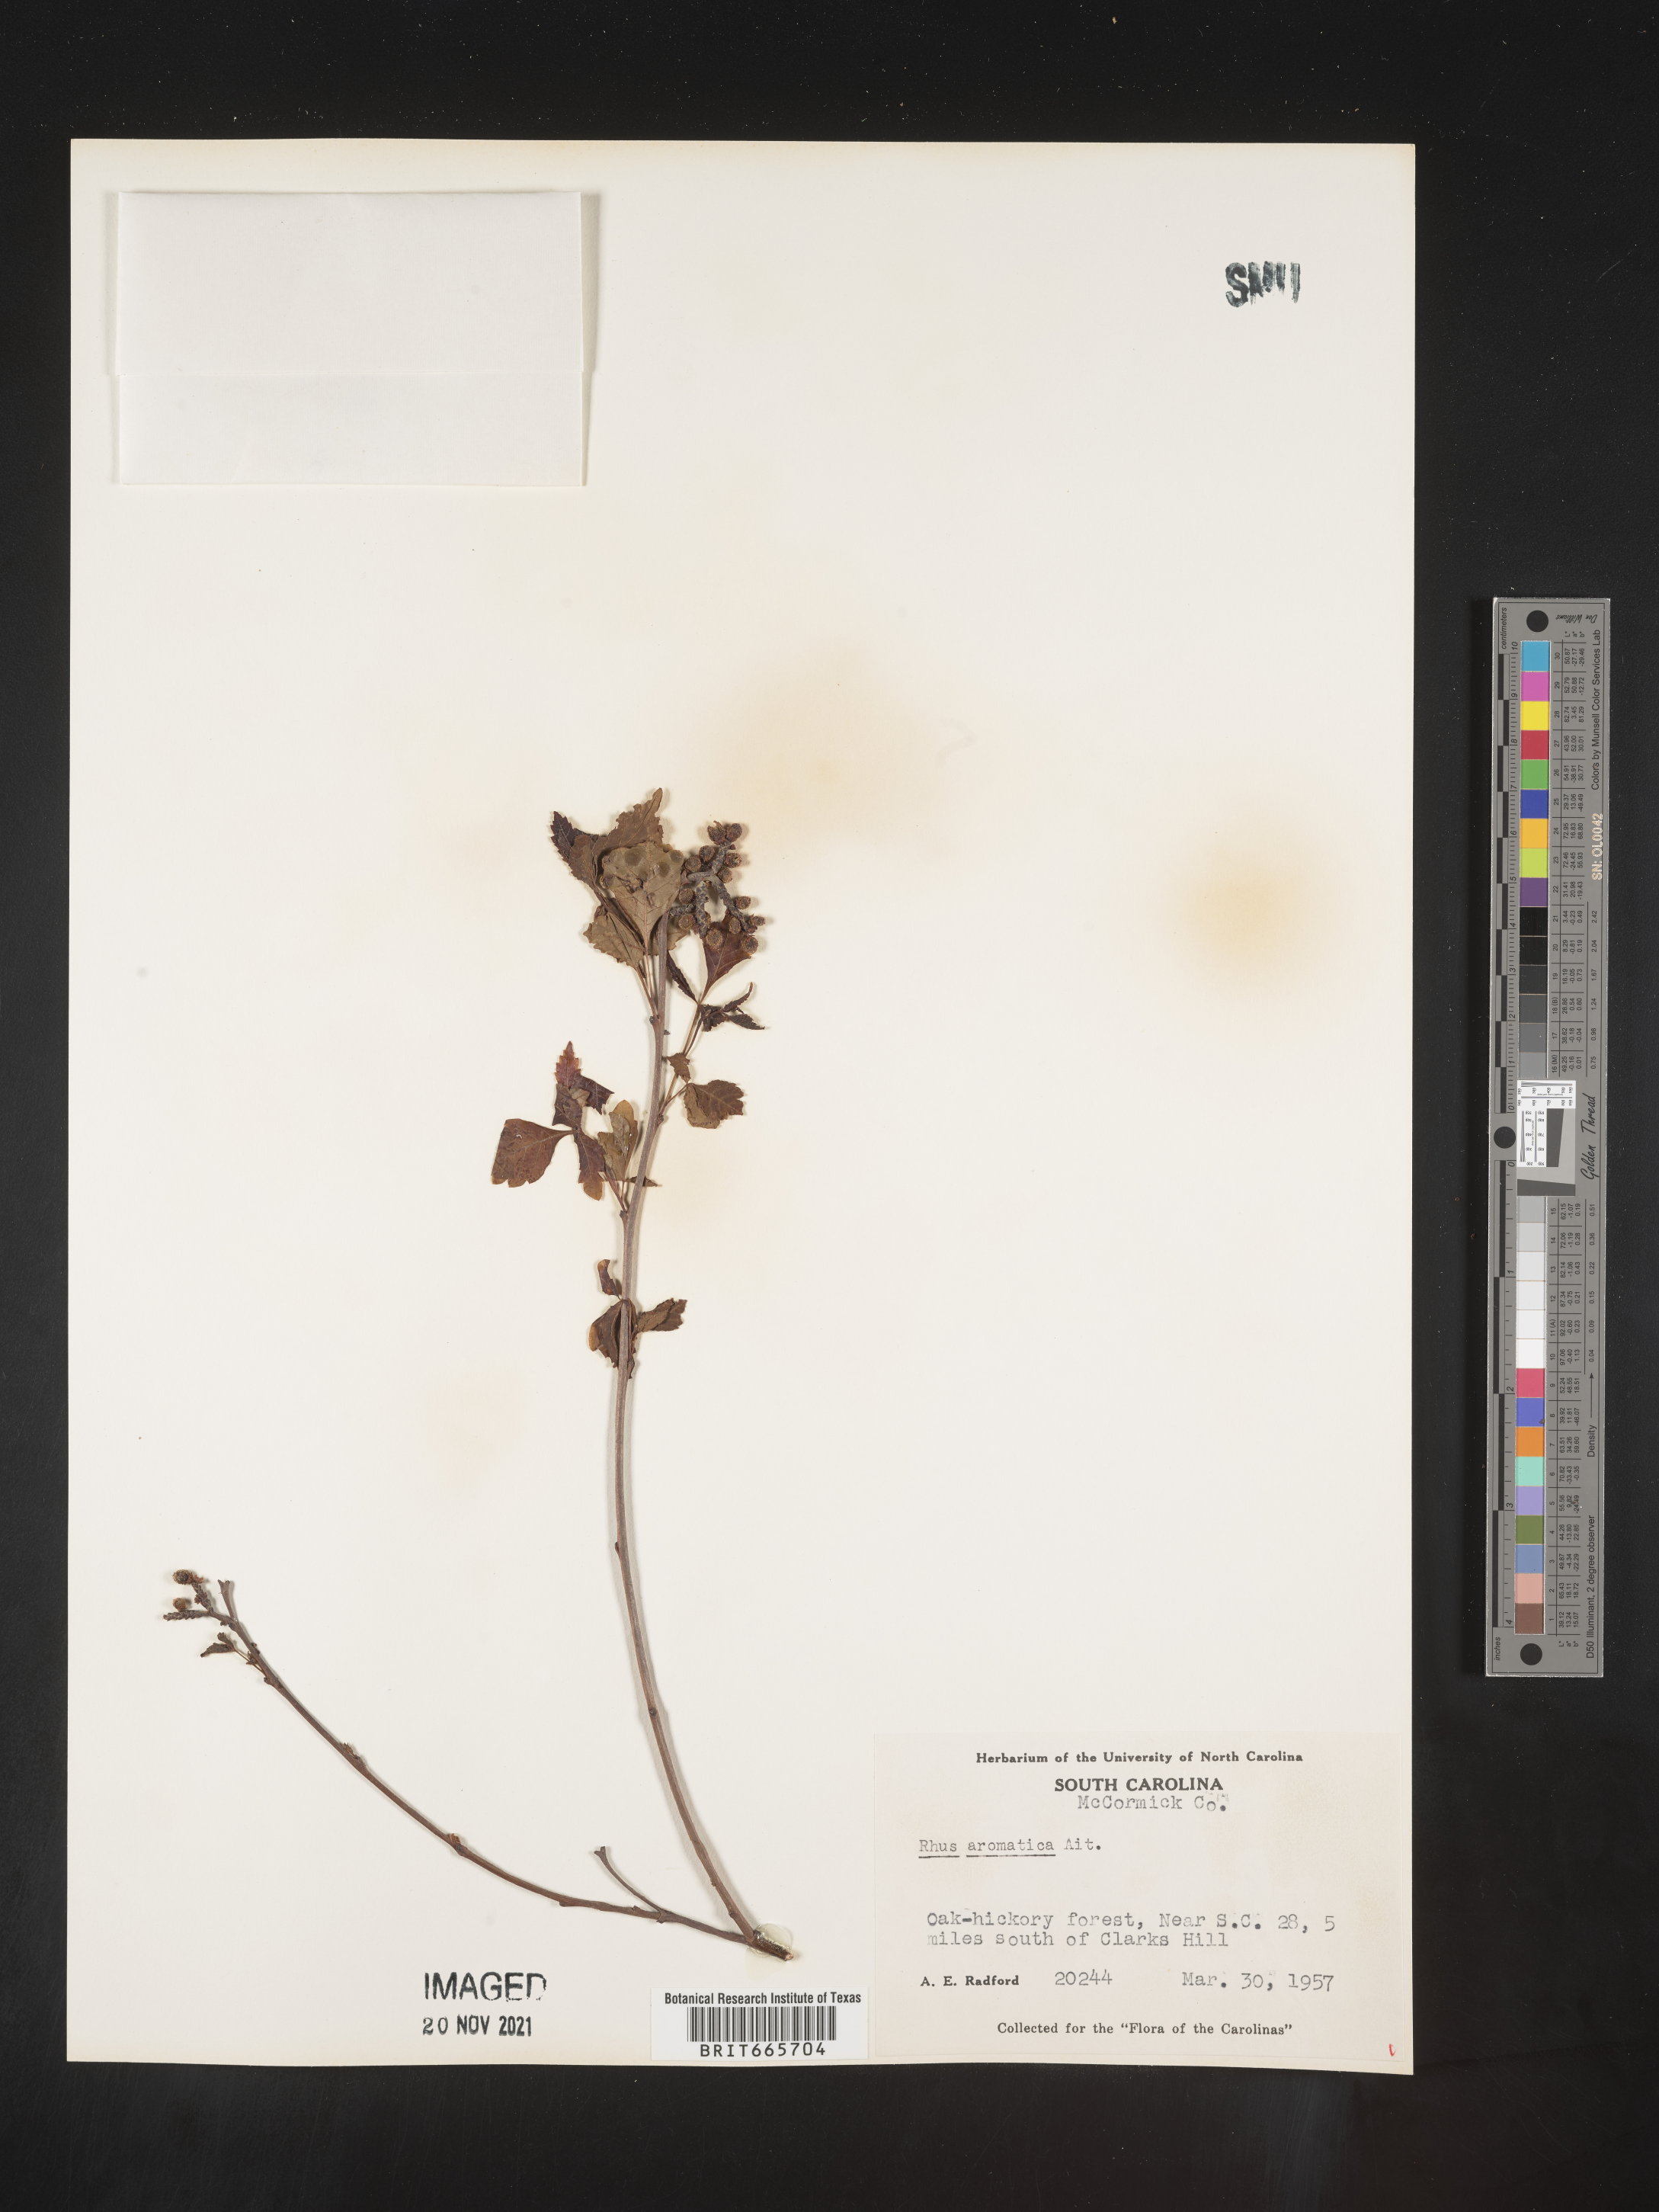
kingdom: Plantae
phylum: Tracheophyta
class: Magnoliopsida
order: Sapindales
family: Anacardiaceae
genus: Rhus
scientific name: Rhus aromatica
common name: Aromatic sumac
